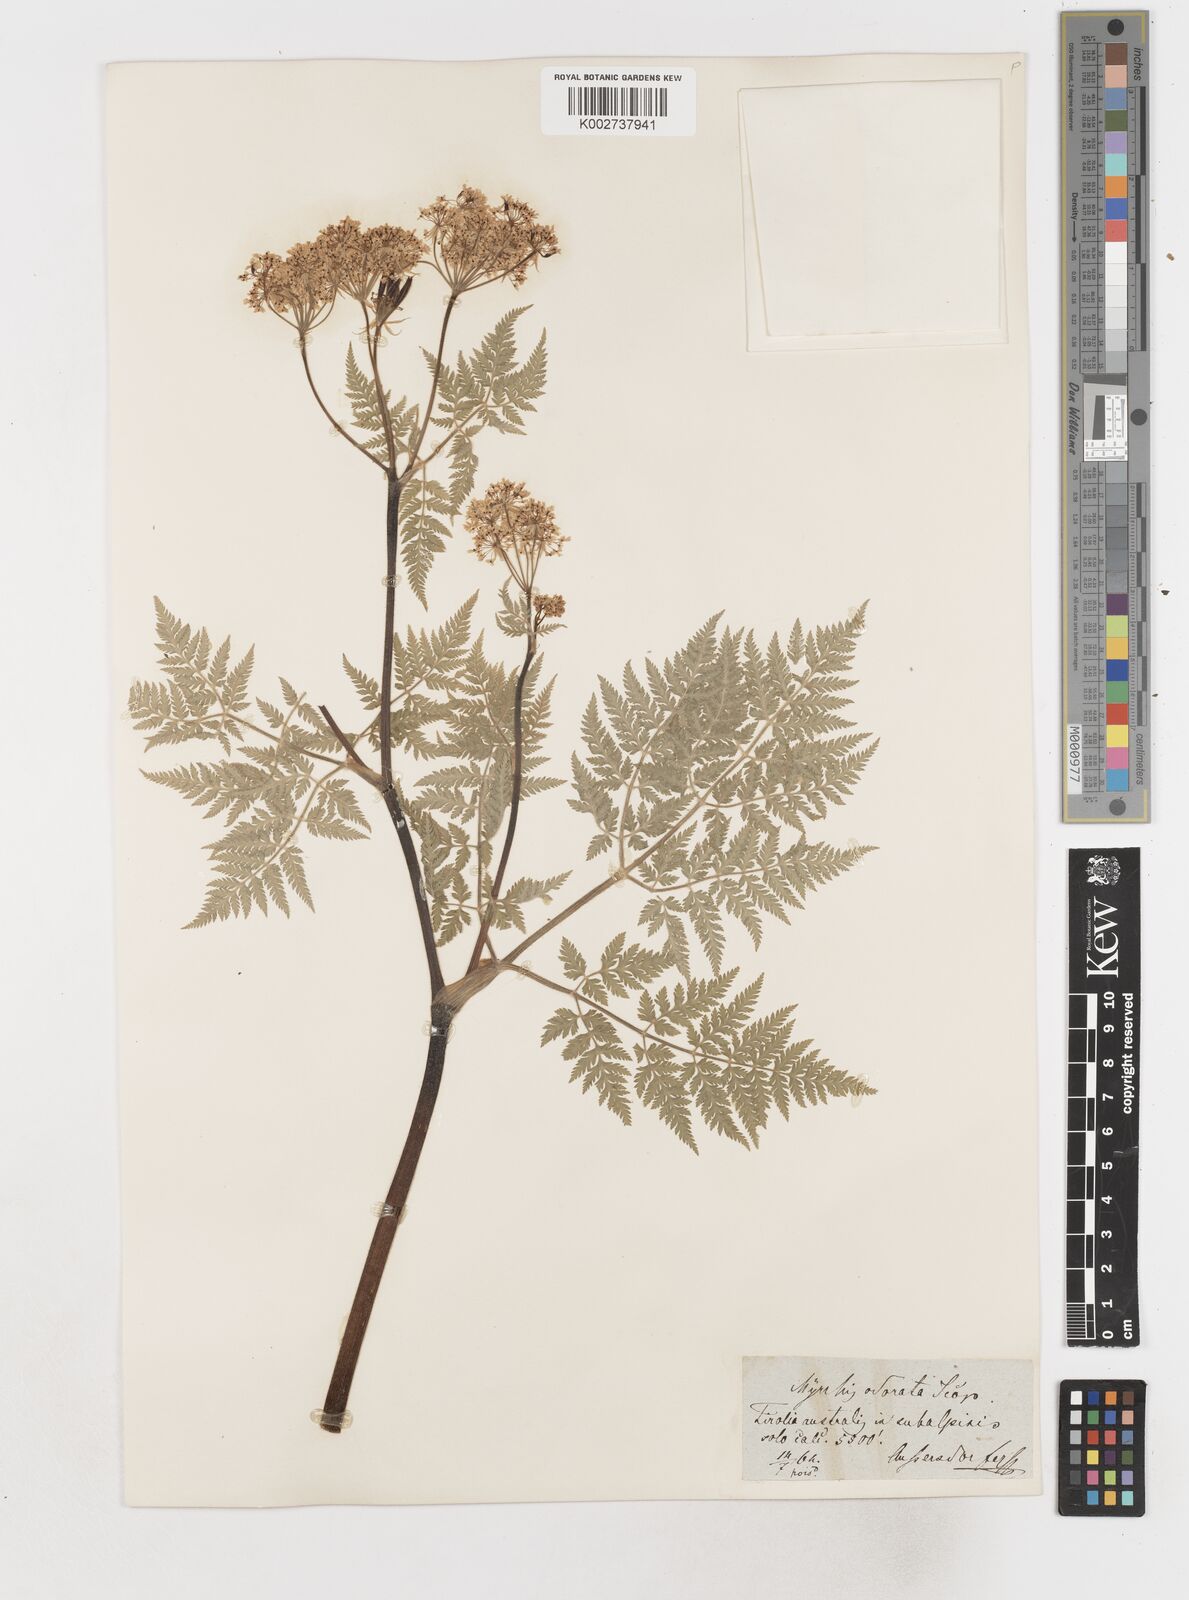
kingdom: Plantae
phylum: Tracheophyta
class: Magnoliopsida
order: Apiales
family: Apiaceae
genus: Myrrhis
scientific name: Myrrhis odorata
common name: Sweet cicely
